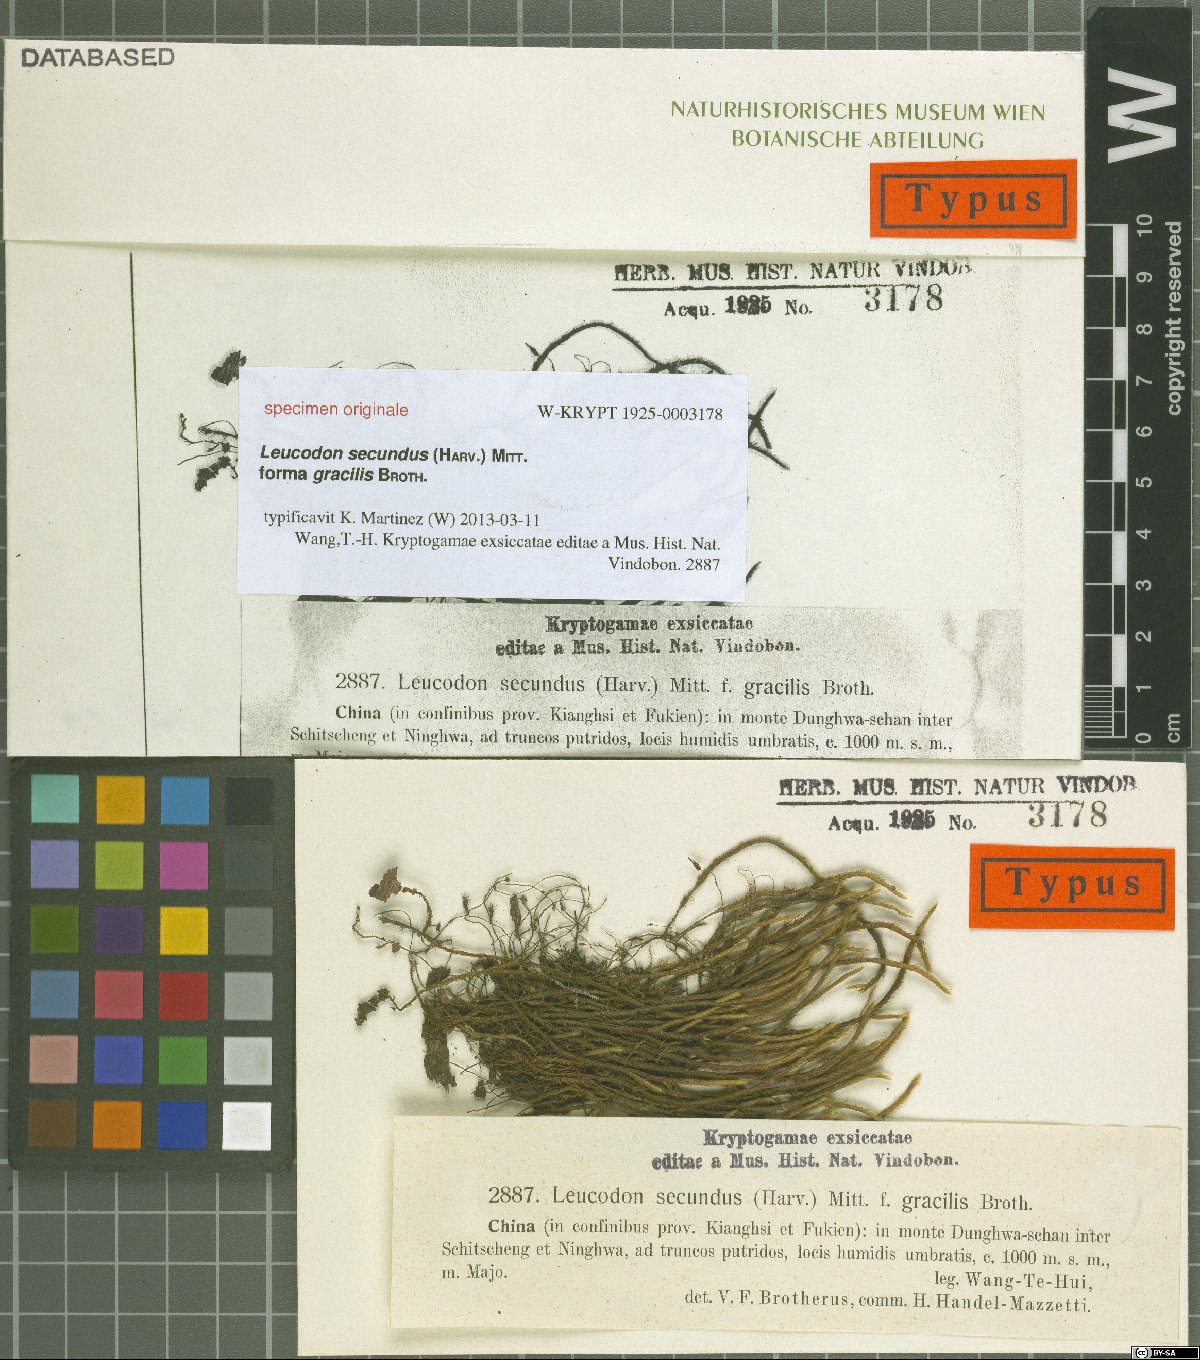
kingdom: Plantae
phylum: Bryophyta
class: Bryopsida
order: Hypnales
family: Leucodontaceae
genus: Leucodon
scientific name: Leucodon secundus
